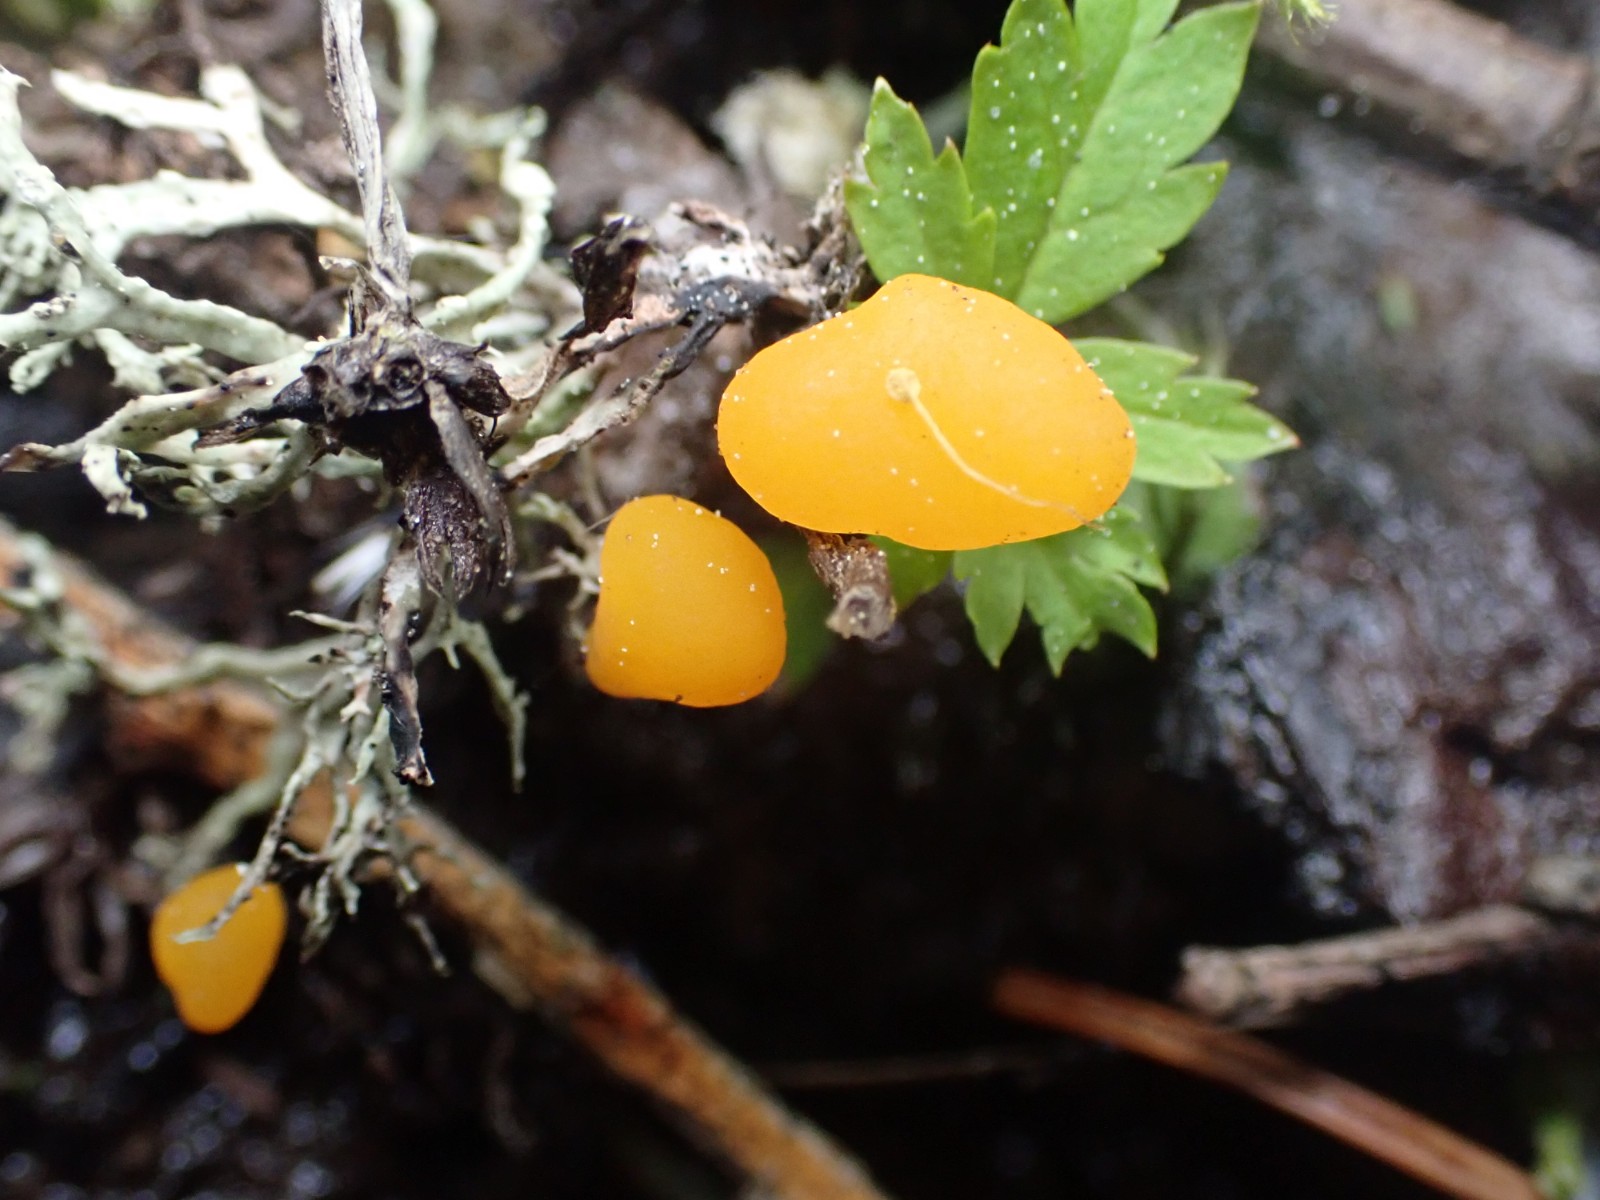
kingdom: Fungi
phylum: Ascomycota
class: Leotiomycetes
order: Helotiales
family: Cenangiaceae
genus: Mitrula
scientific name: Mitrula paludosa
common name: gul nøkketunge
